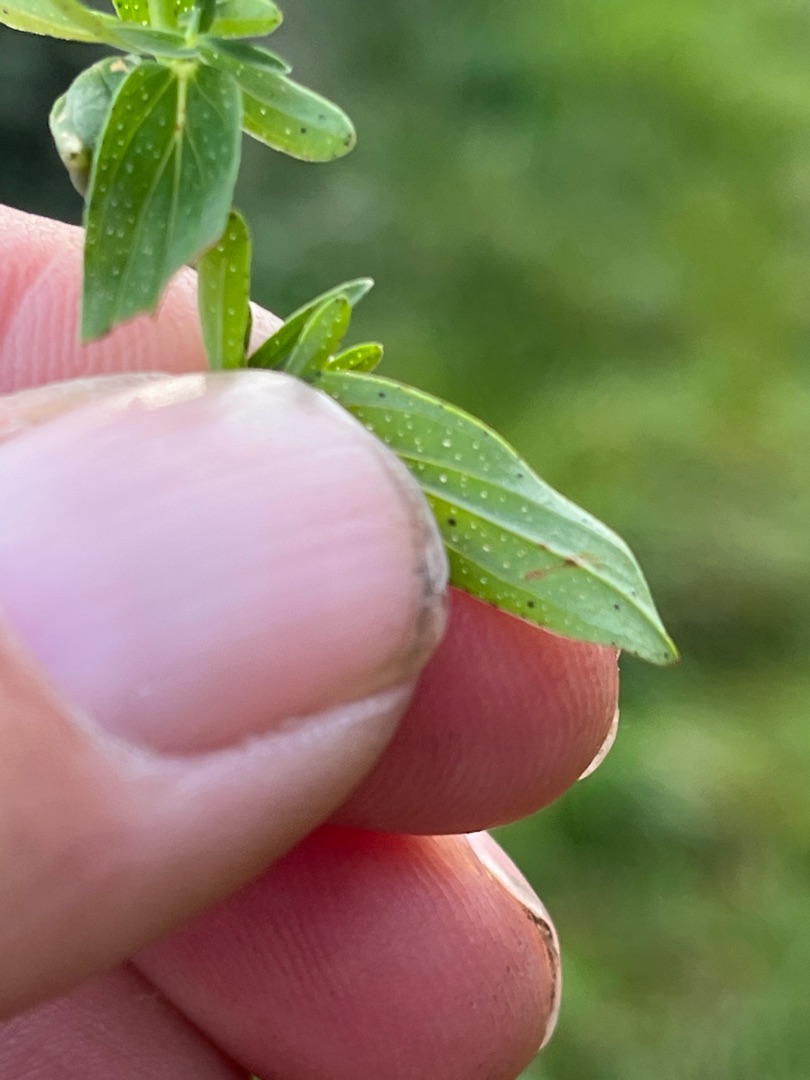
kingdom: Plantae
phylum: Tracheophyta
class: Magnoliopsida
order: Malpighiales
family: Hypericaceae
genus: Hypericum
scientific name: Hypericum perforatum
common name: Prikbladet perikon
